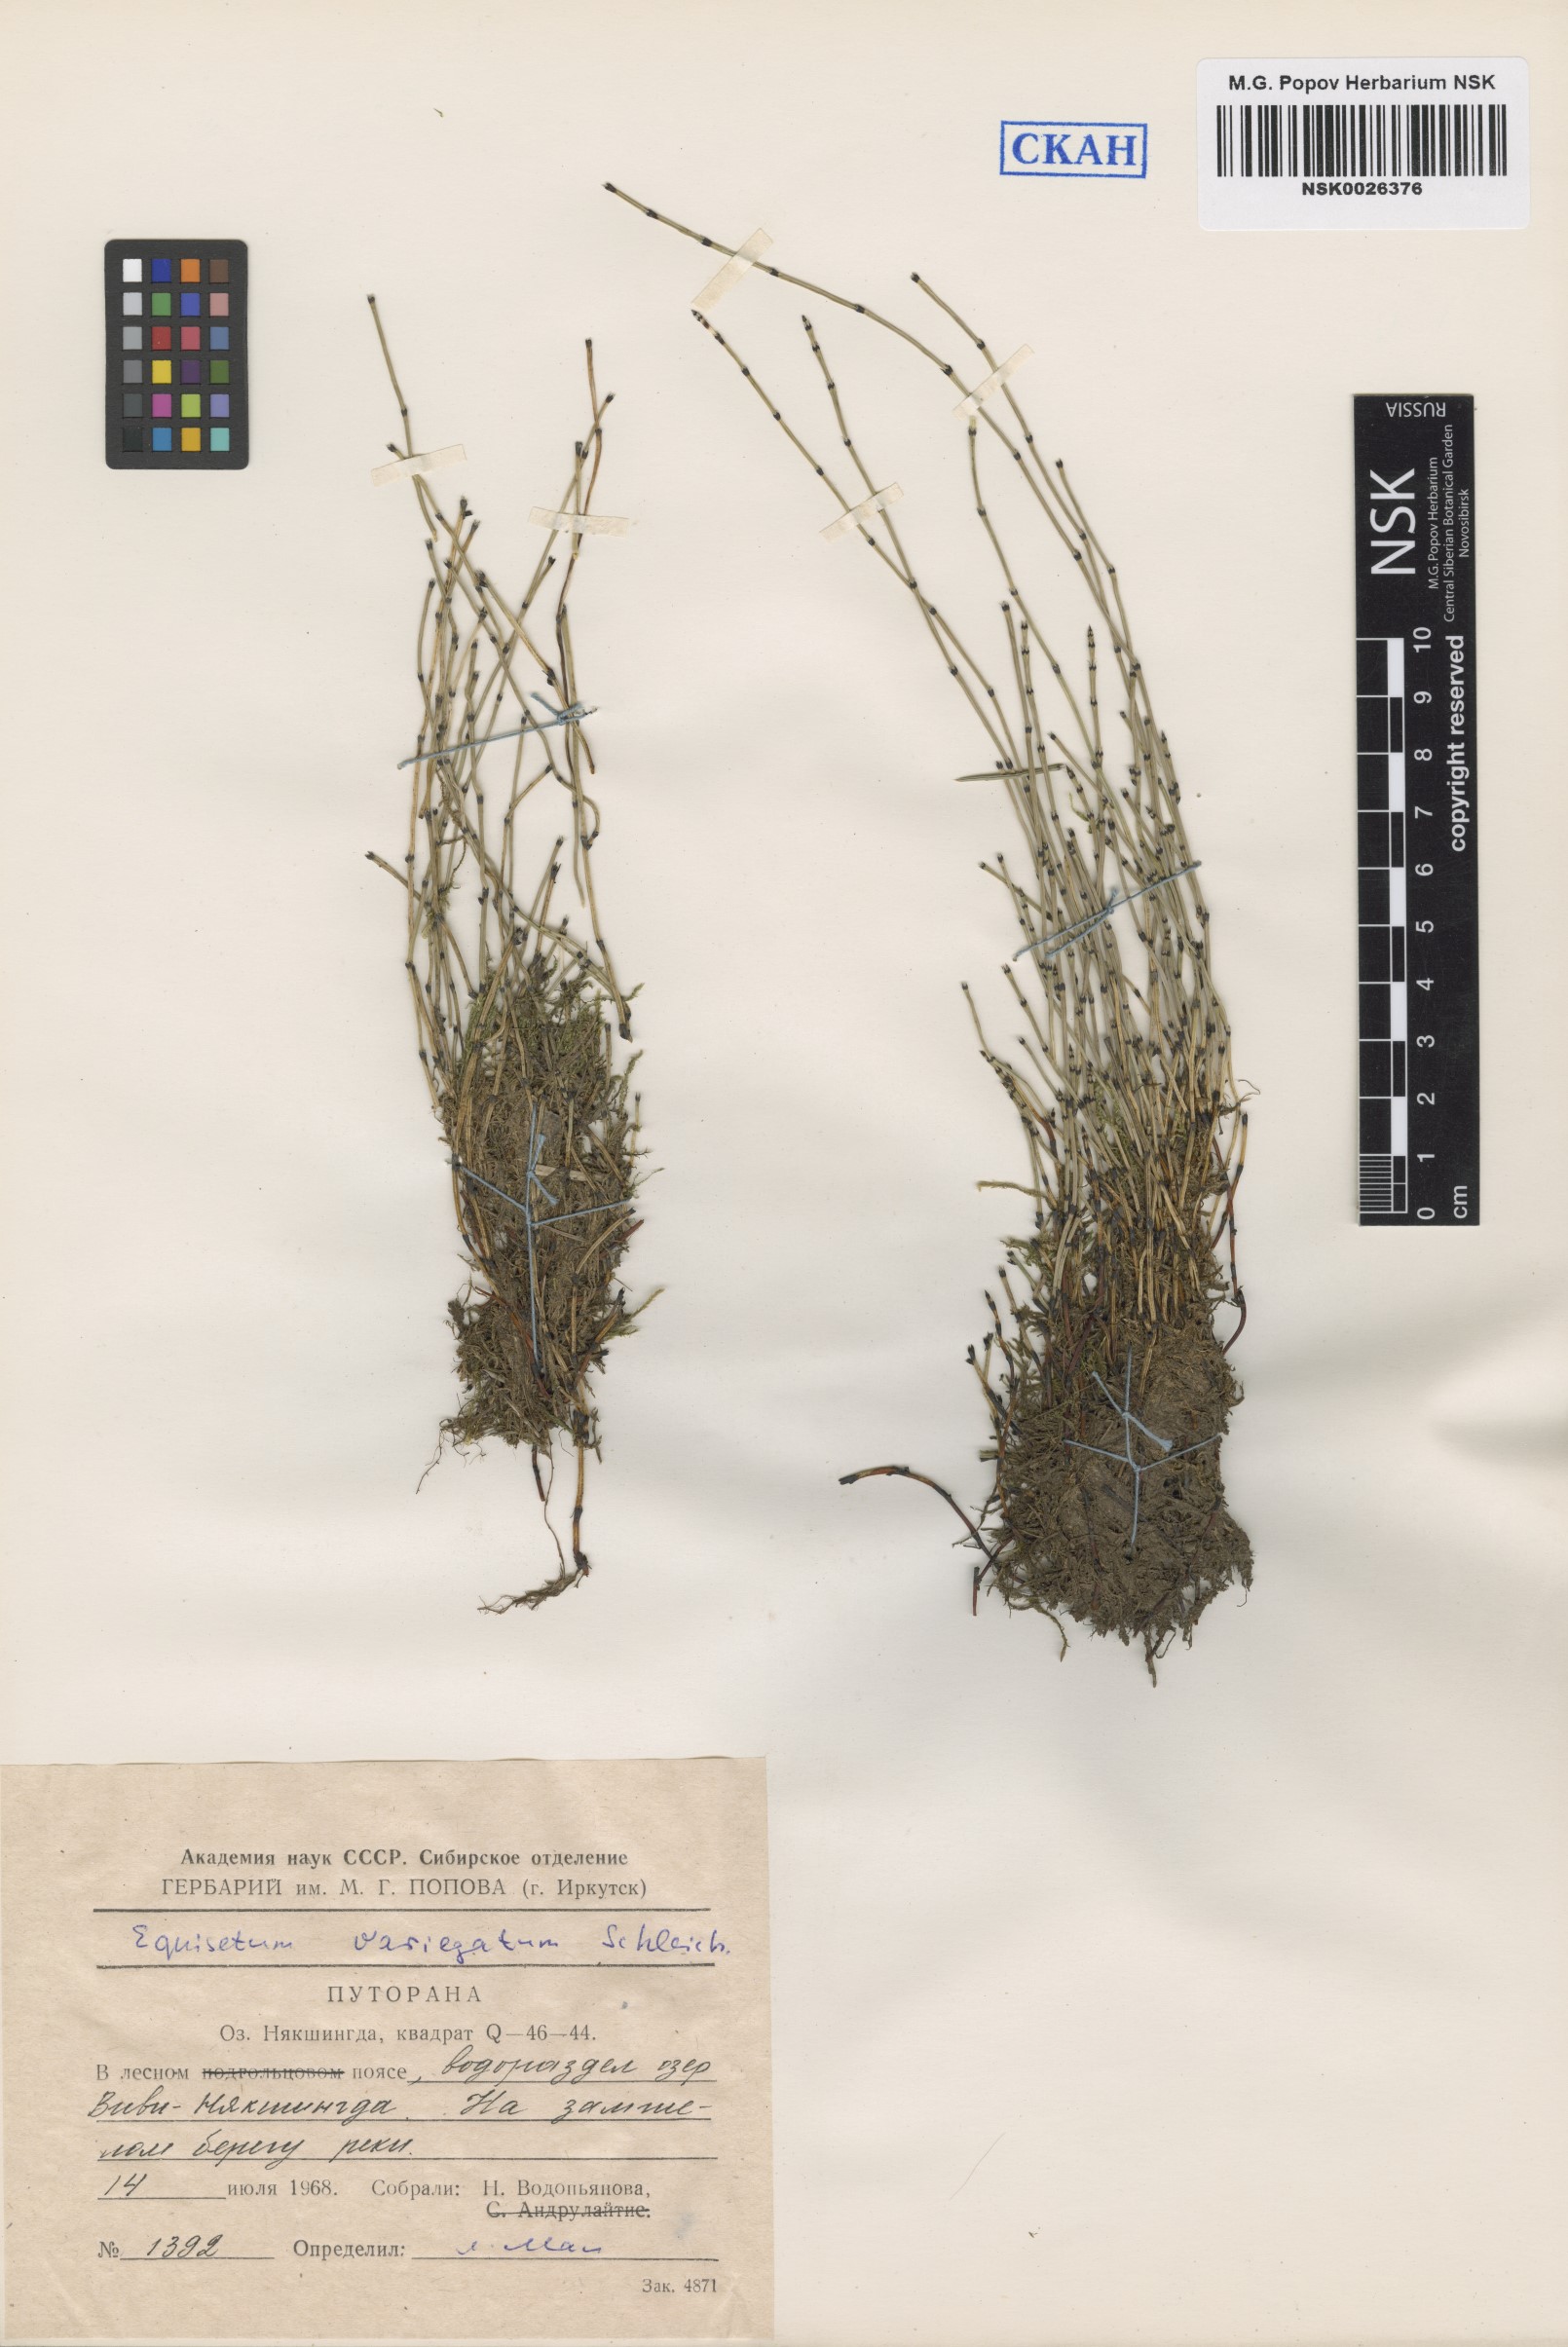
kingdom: Plantae
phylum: Tracheophyta
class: Polypodiopsida
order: Equisetales
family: Equisetaceae
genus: Equisetum
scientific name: Equisetum variegatum
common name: Variegated horsetail
